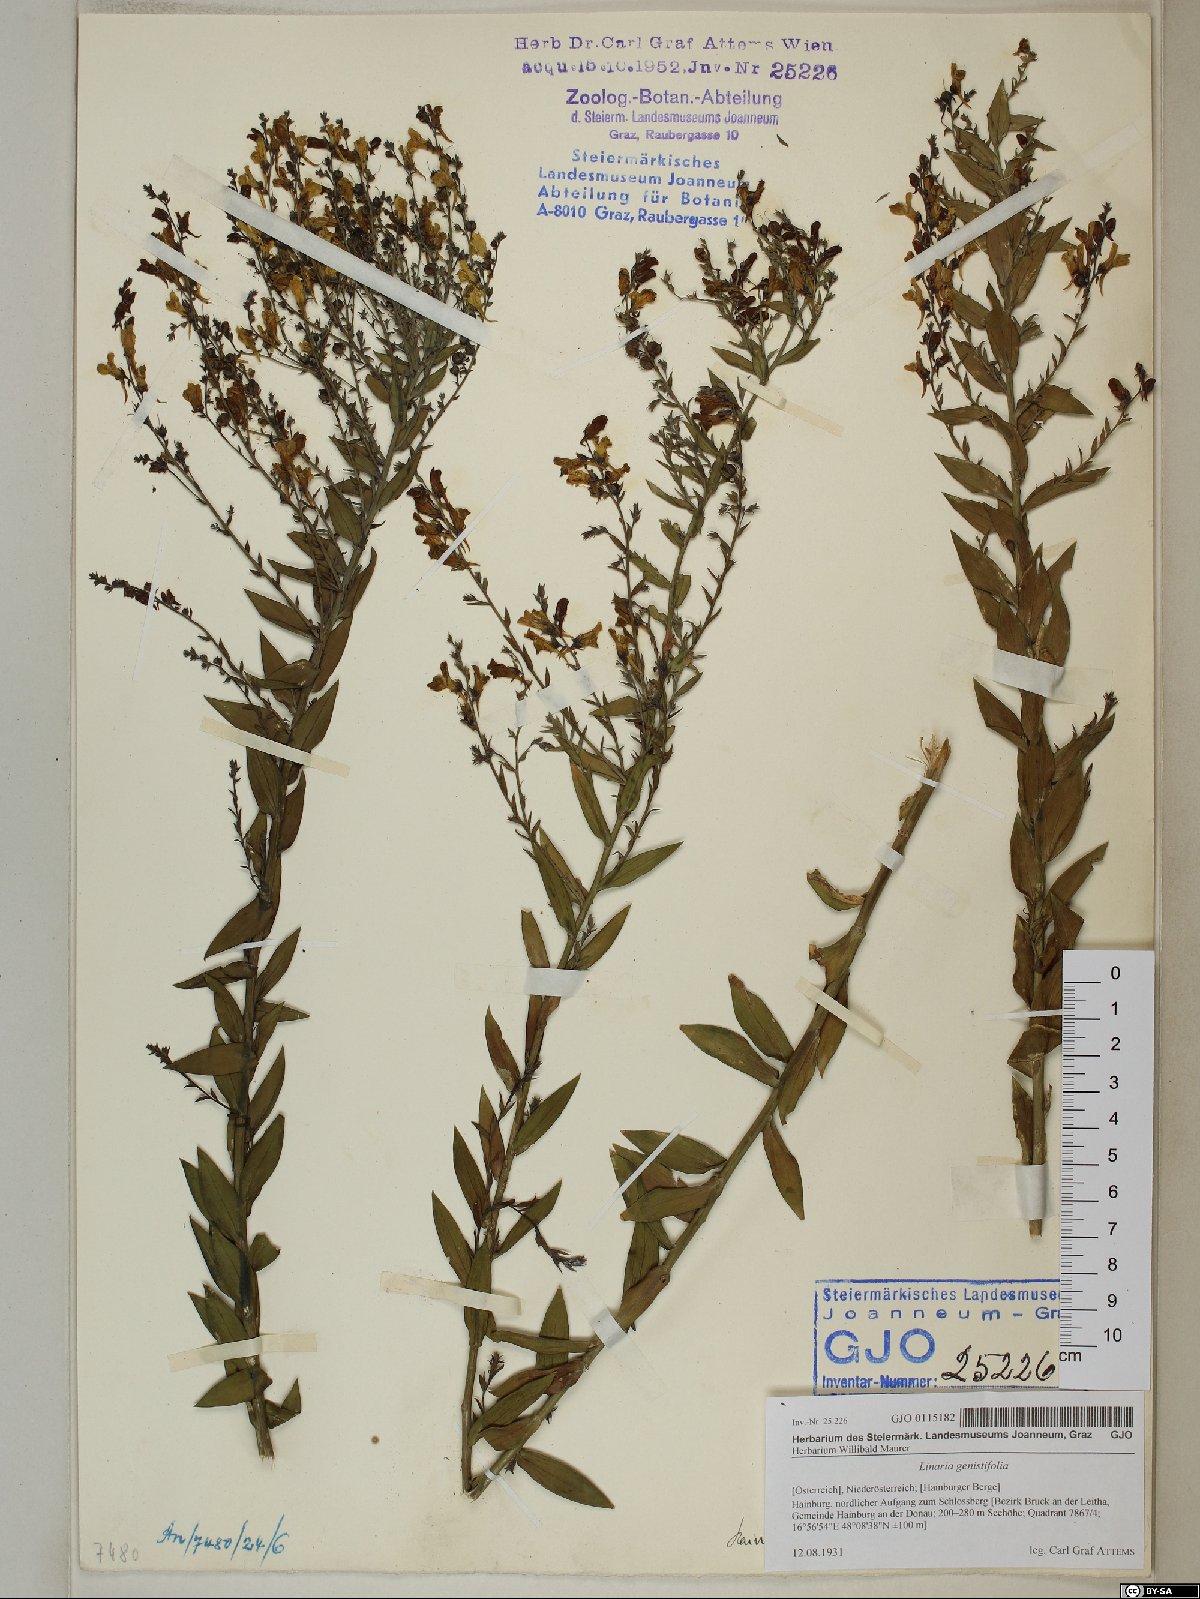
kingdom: Plantae
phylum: Tracheophyta
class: Magnoliopsida
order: Lamiales
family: Plantaginaceae
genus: Linaria
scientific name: Linaria genistifolia
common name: Broomleaf toadflax
